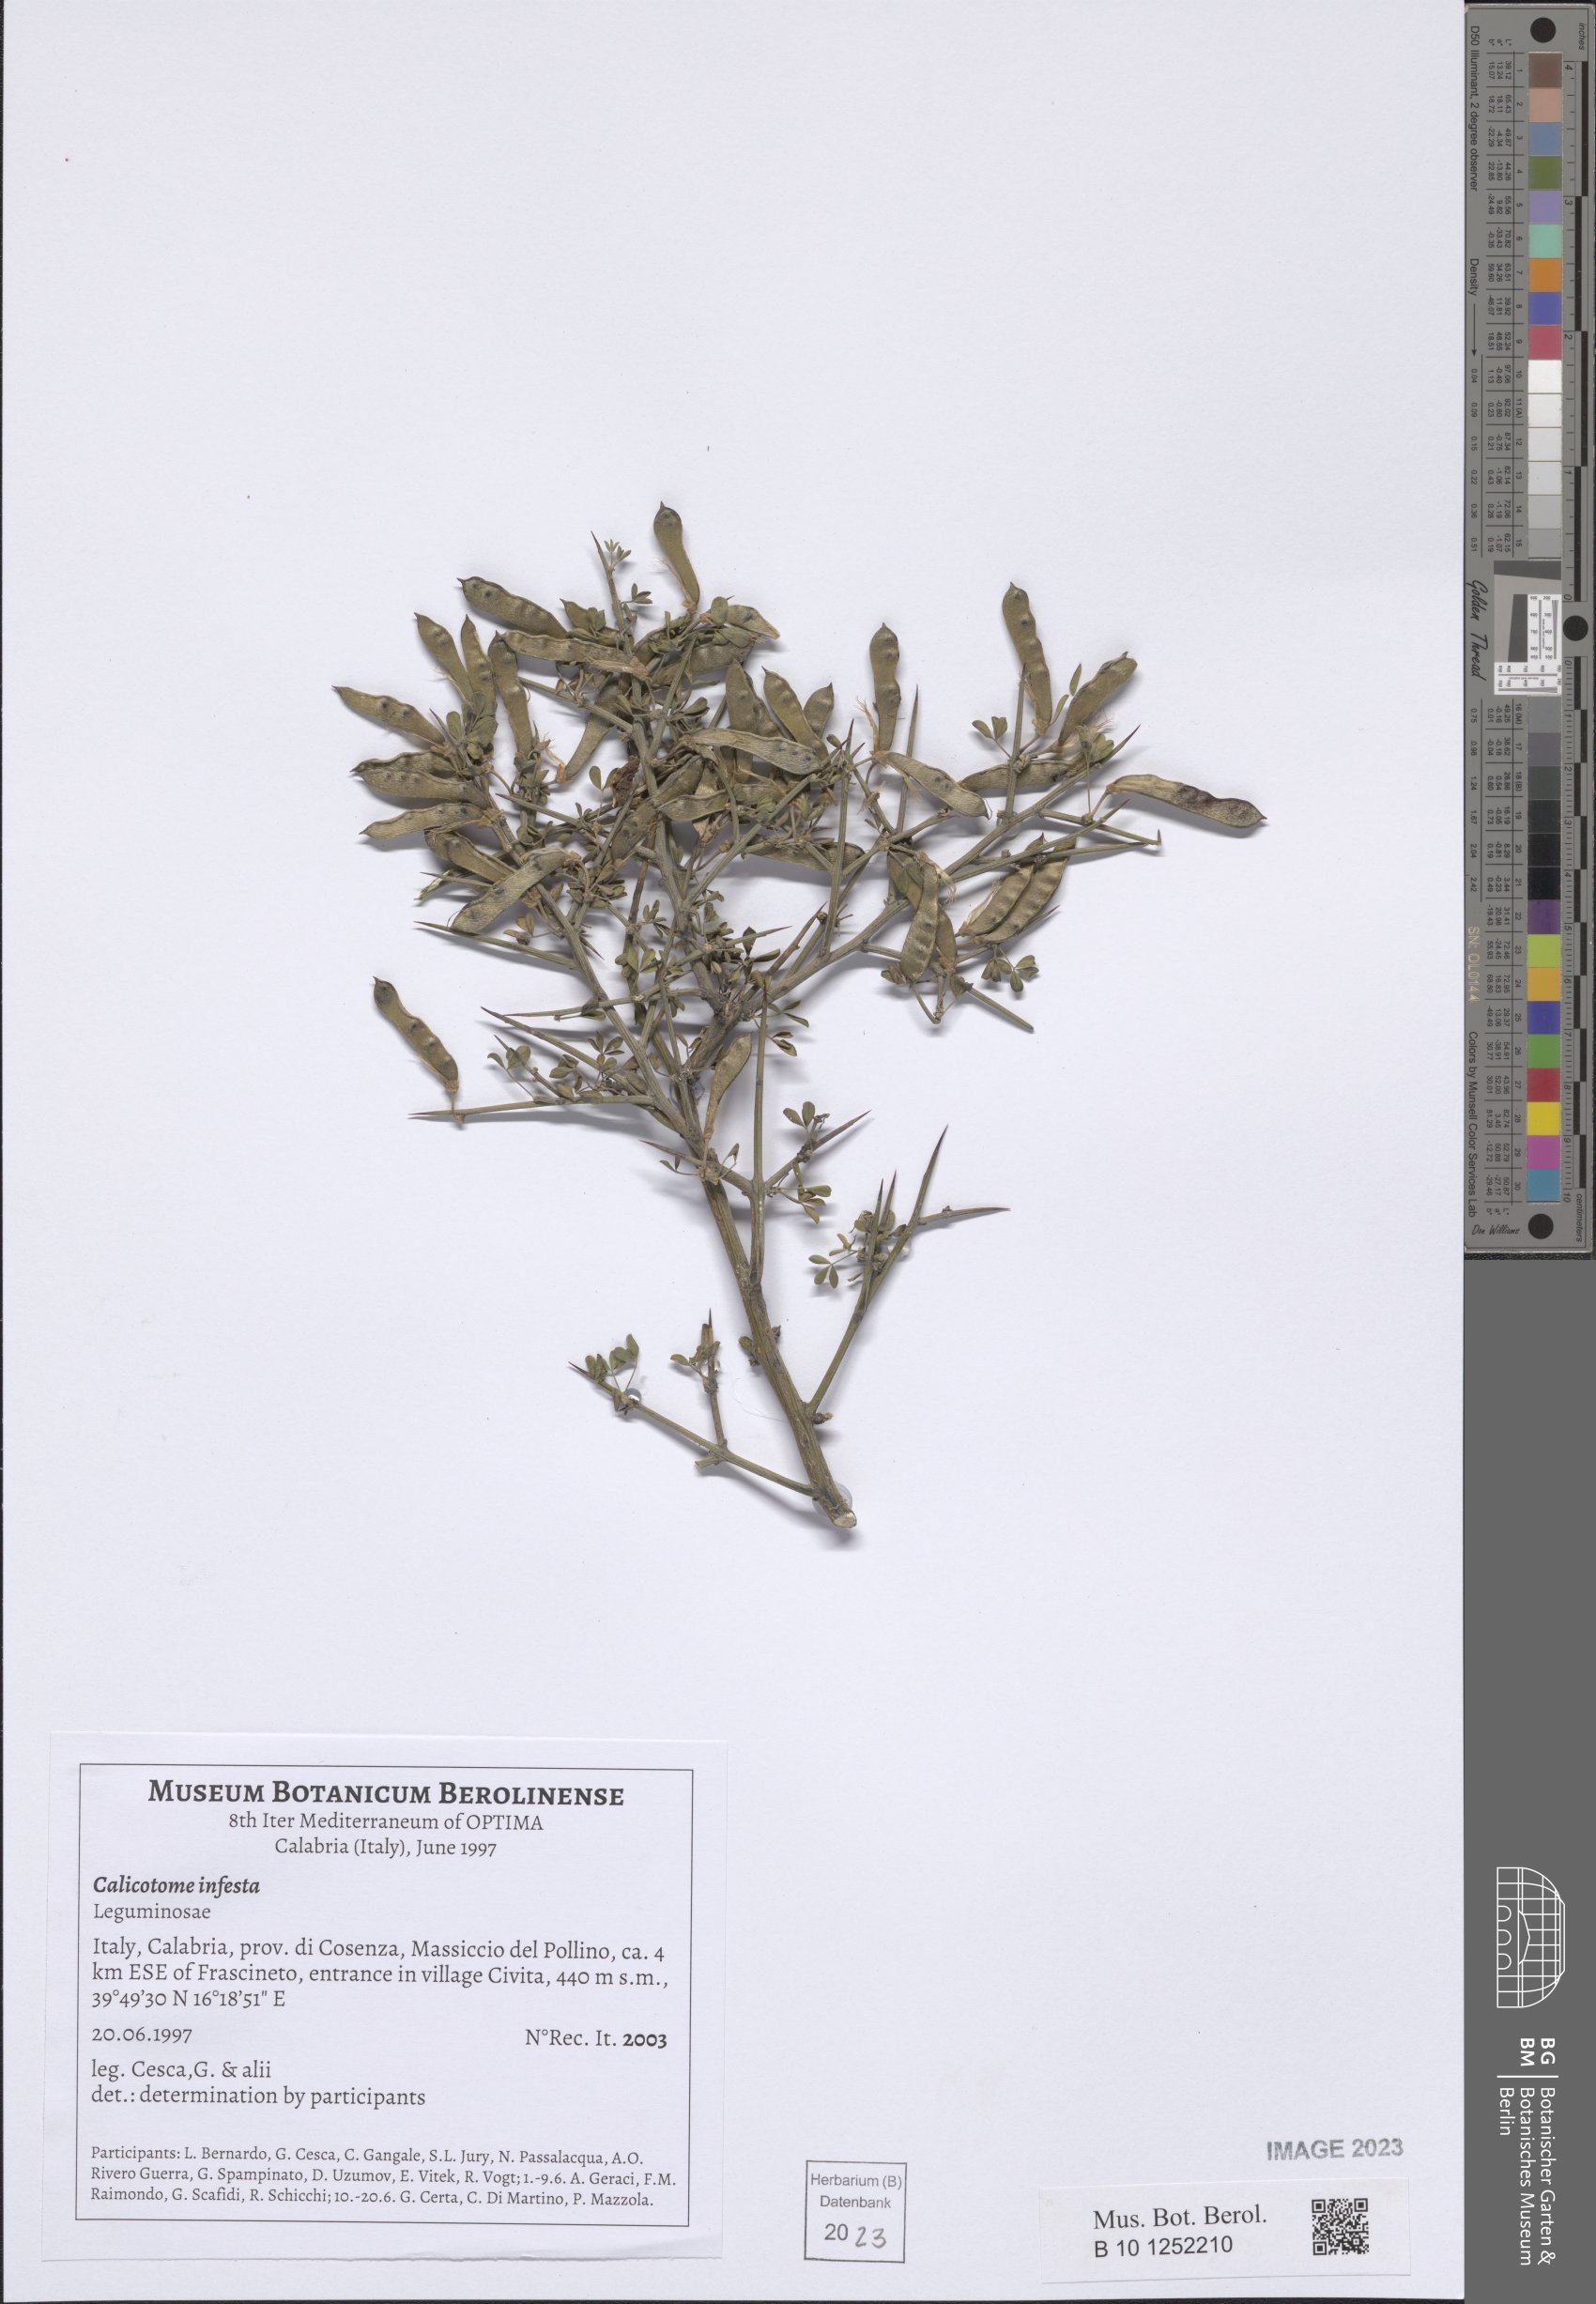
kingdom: Plantae
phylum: Tracheophyta
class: Magnoliopsida
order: Fabales
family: Fabaceae
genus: Calicotome
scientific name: Calicotome infesta
